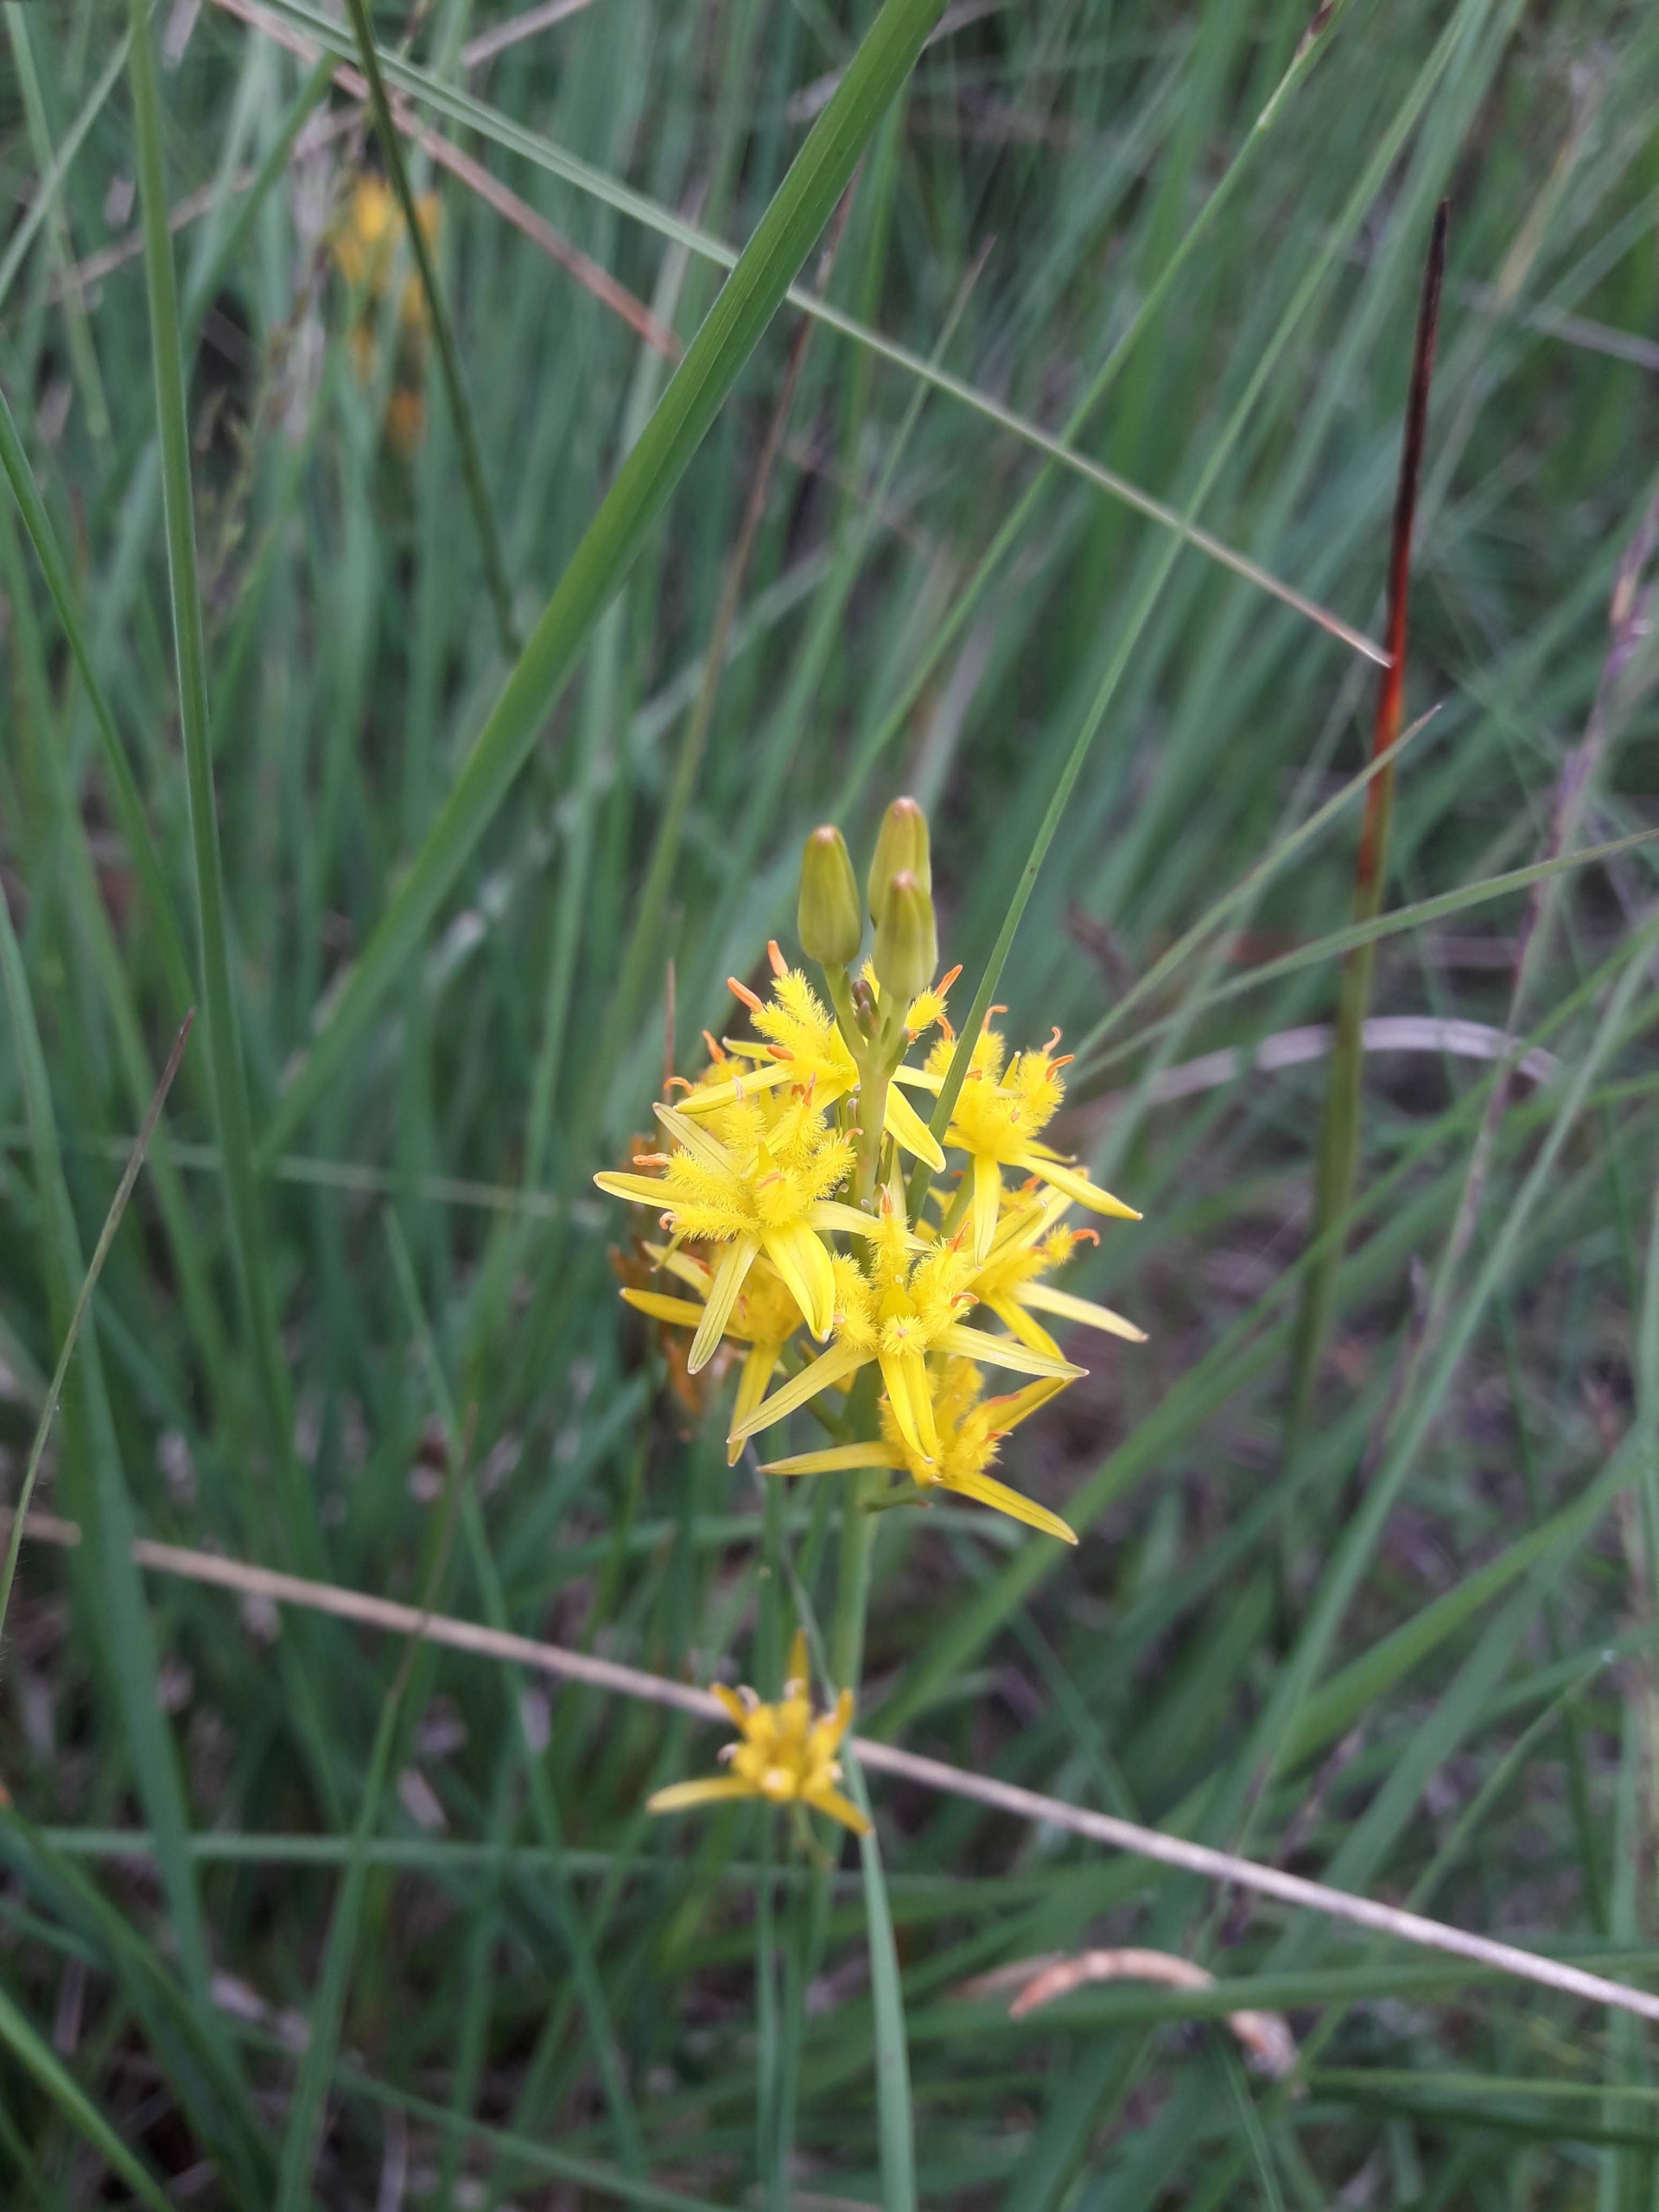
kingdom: Plantae
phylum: Tracheophyta
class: Liliopsida
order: Dioscoreales
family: Nartheciaceae
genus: Narthecium
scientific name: Narthecium ossifragum
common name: Benbræk
